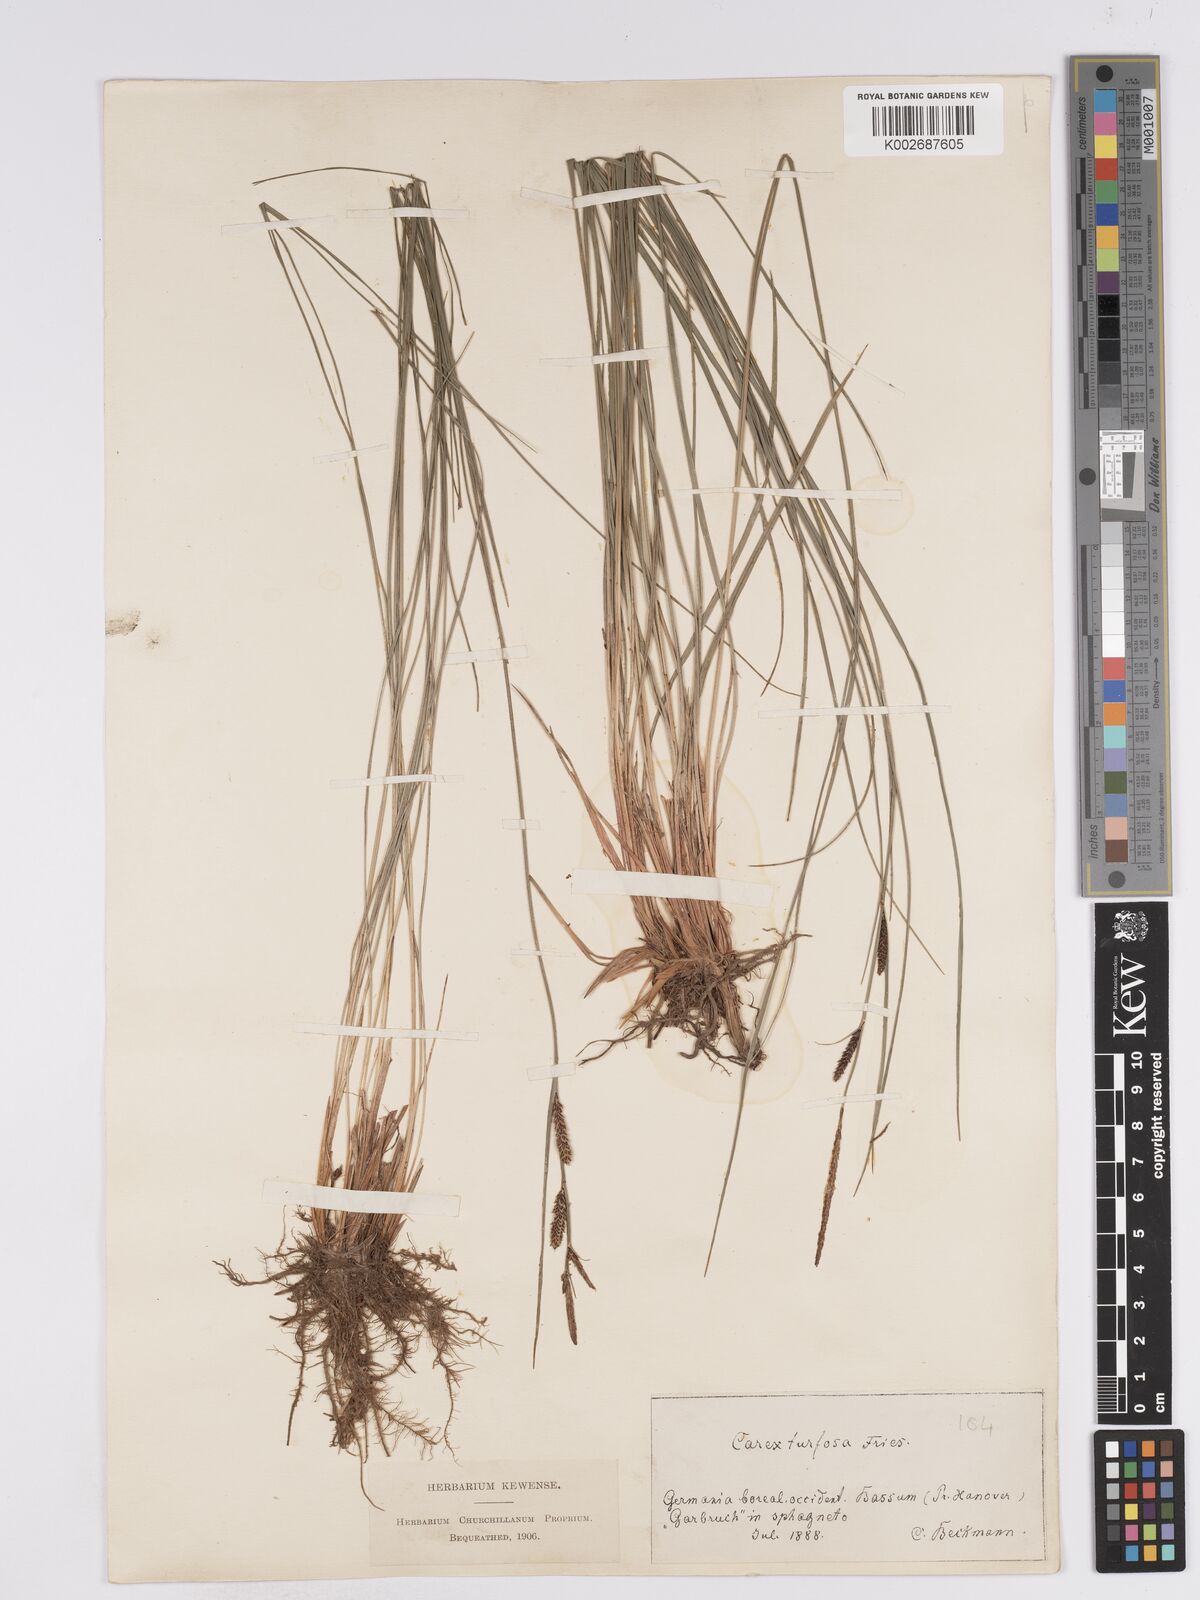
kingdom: Plantae
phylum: Tracheophyta
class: Liliopsida
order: Poales
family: Cyperaceae
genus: Carex
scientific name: Carex
